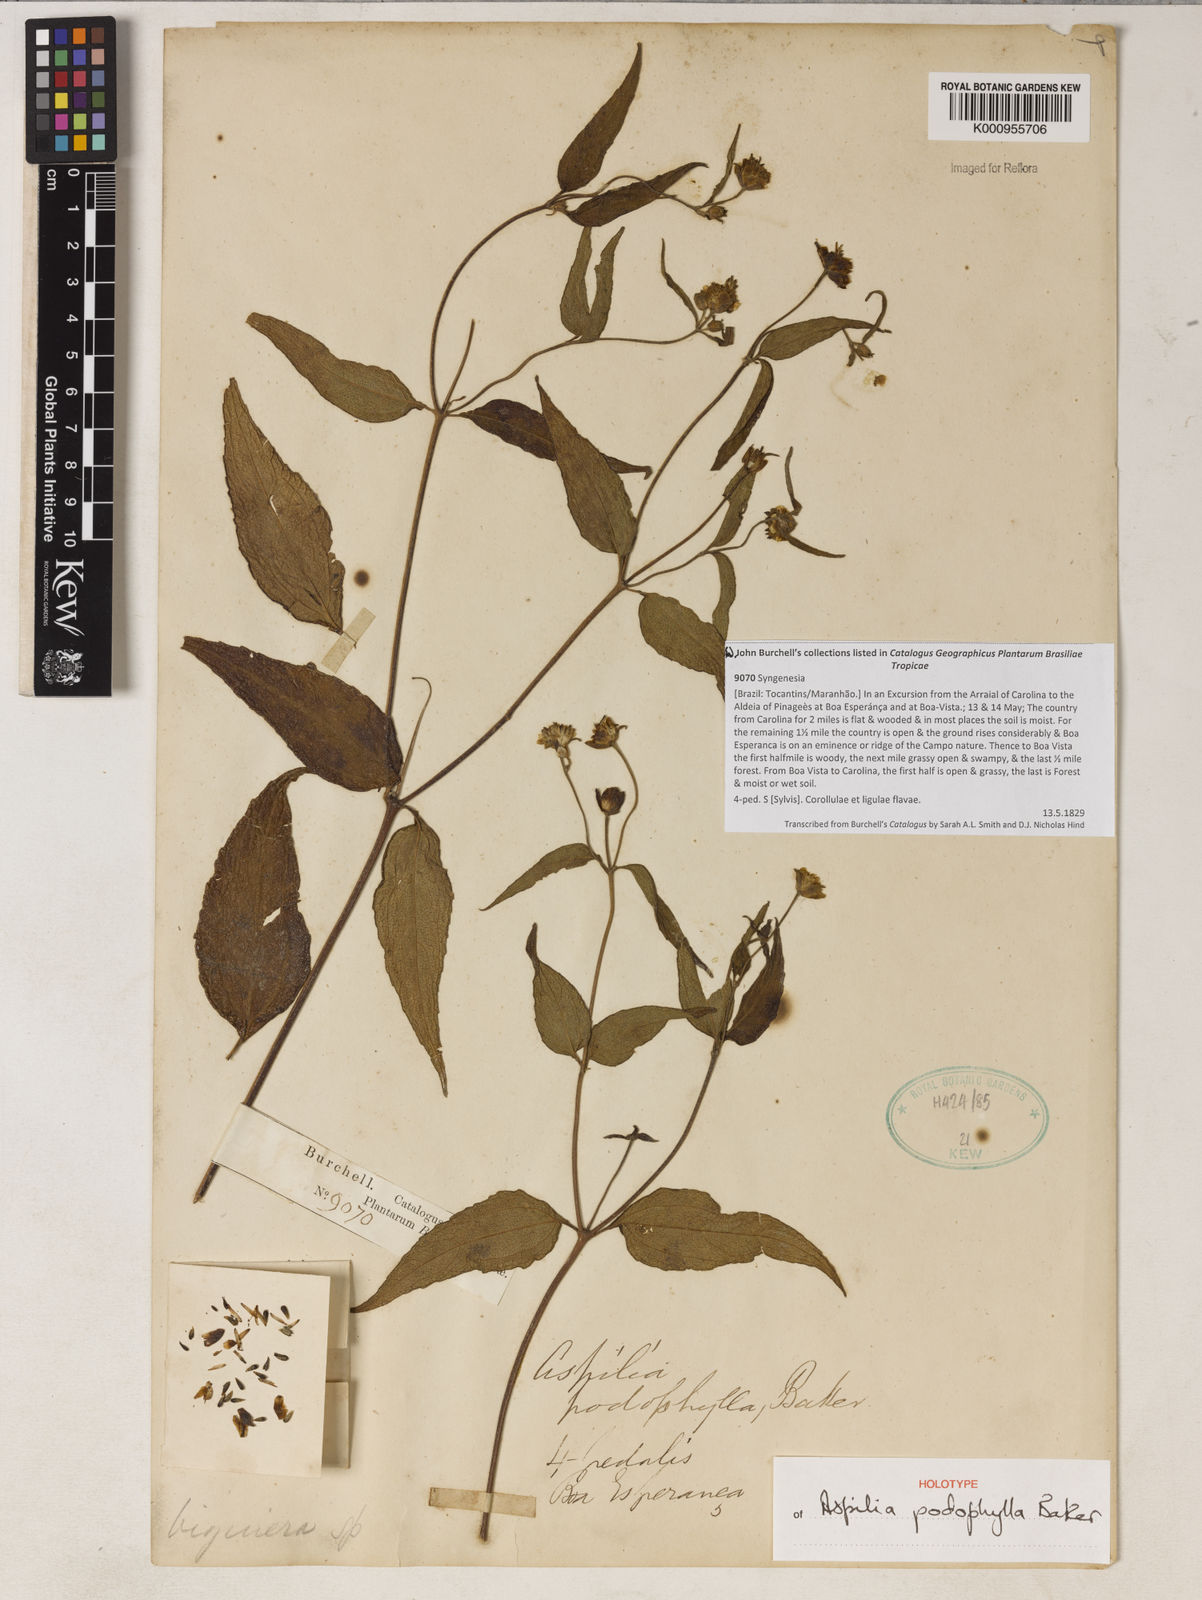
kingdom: Plantae
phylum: Tracheophyta
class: Magnoliopsida
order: Asterales
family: Asteraceae
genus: Wedelia
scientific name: Wedelia podophylla
